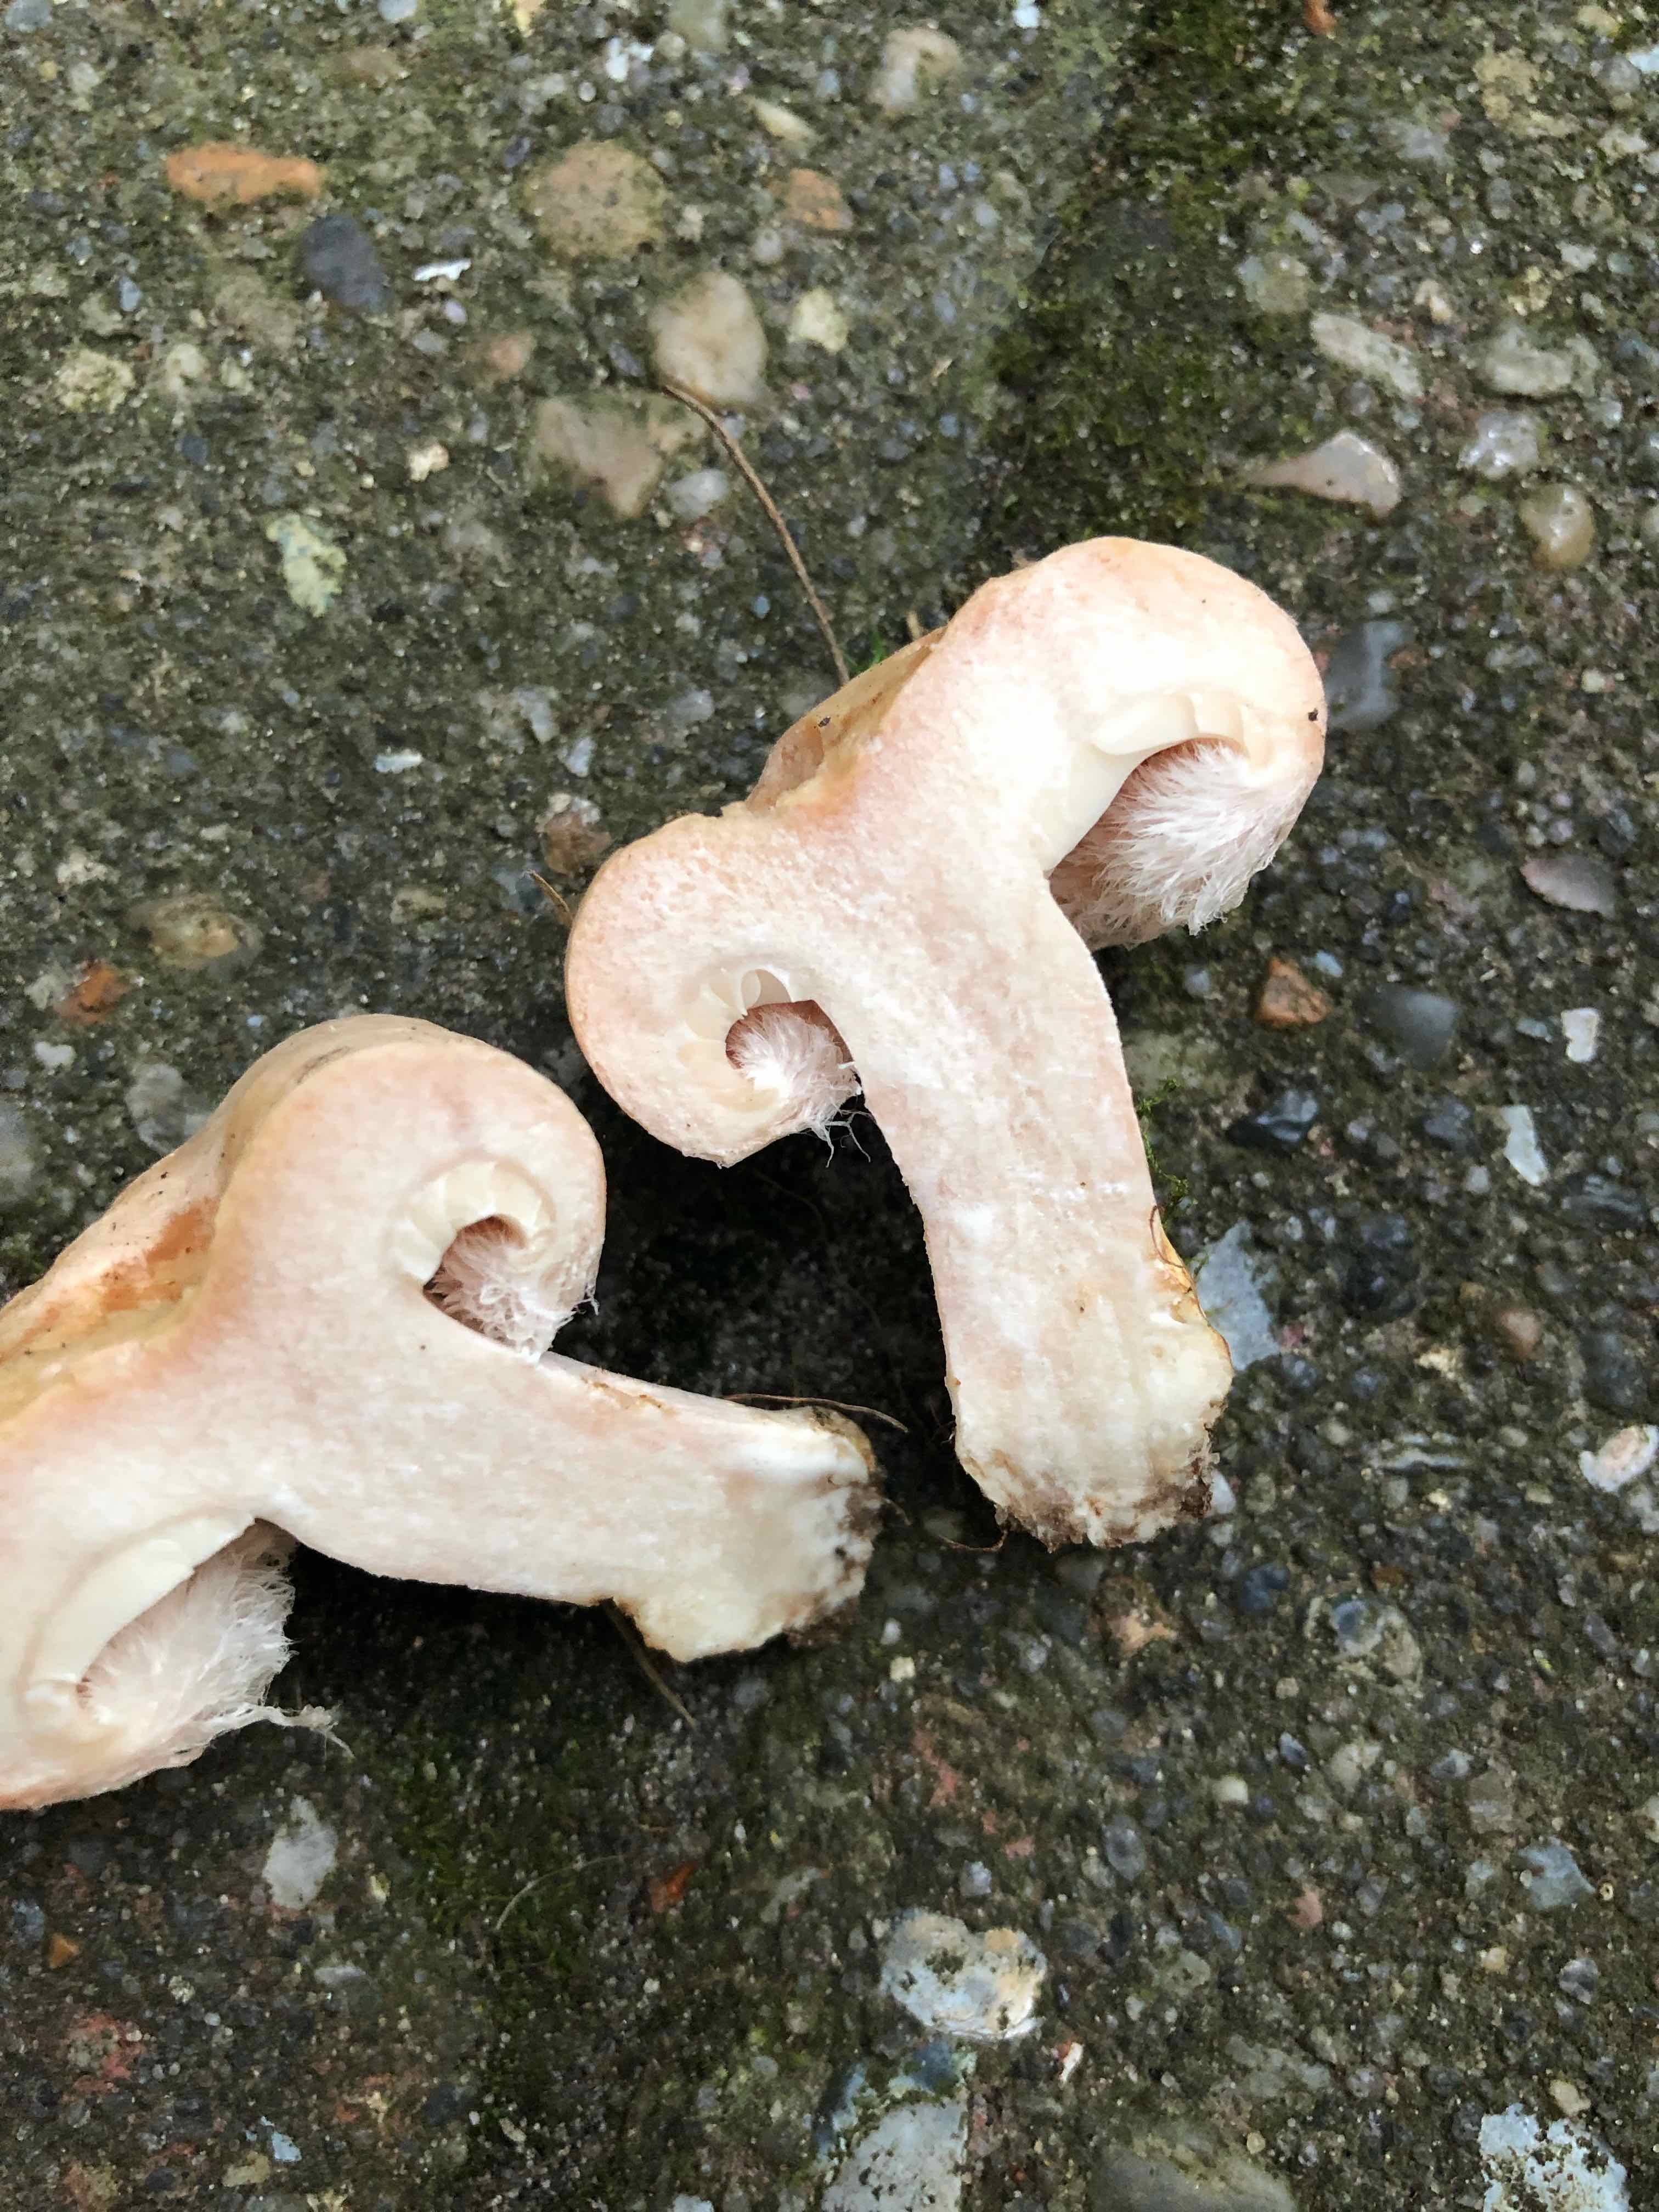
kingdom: Fungi
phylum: Basidiomycota
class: Agaricomycetes
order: Russulales
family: Russulaceae
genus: Lactarius
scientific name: Lactarius pubescens
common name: dunet mælkehat
